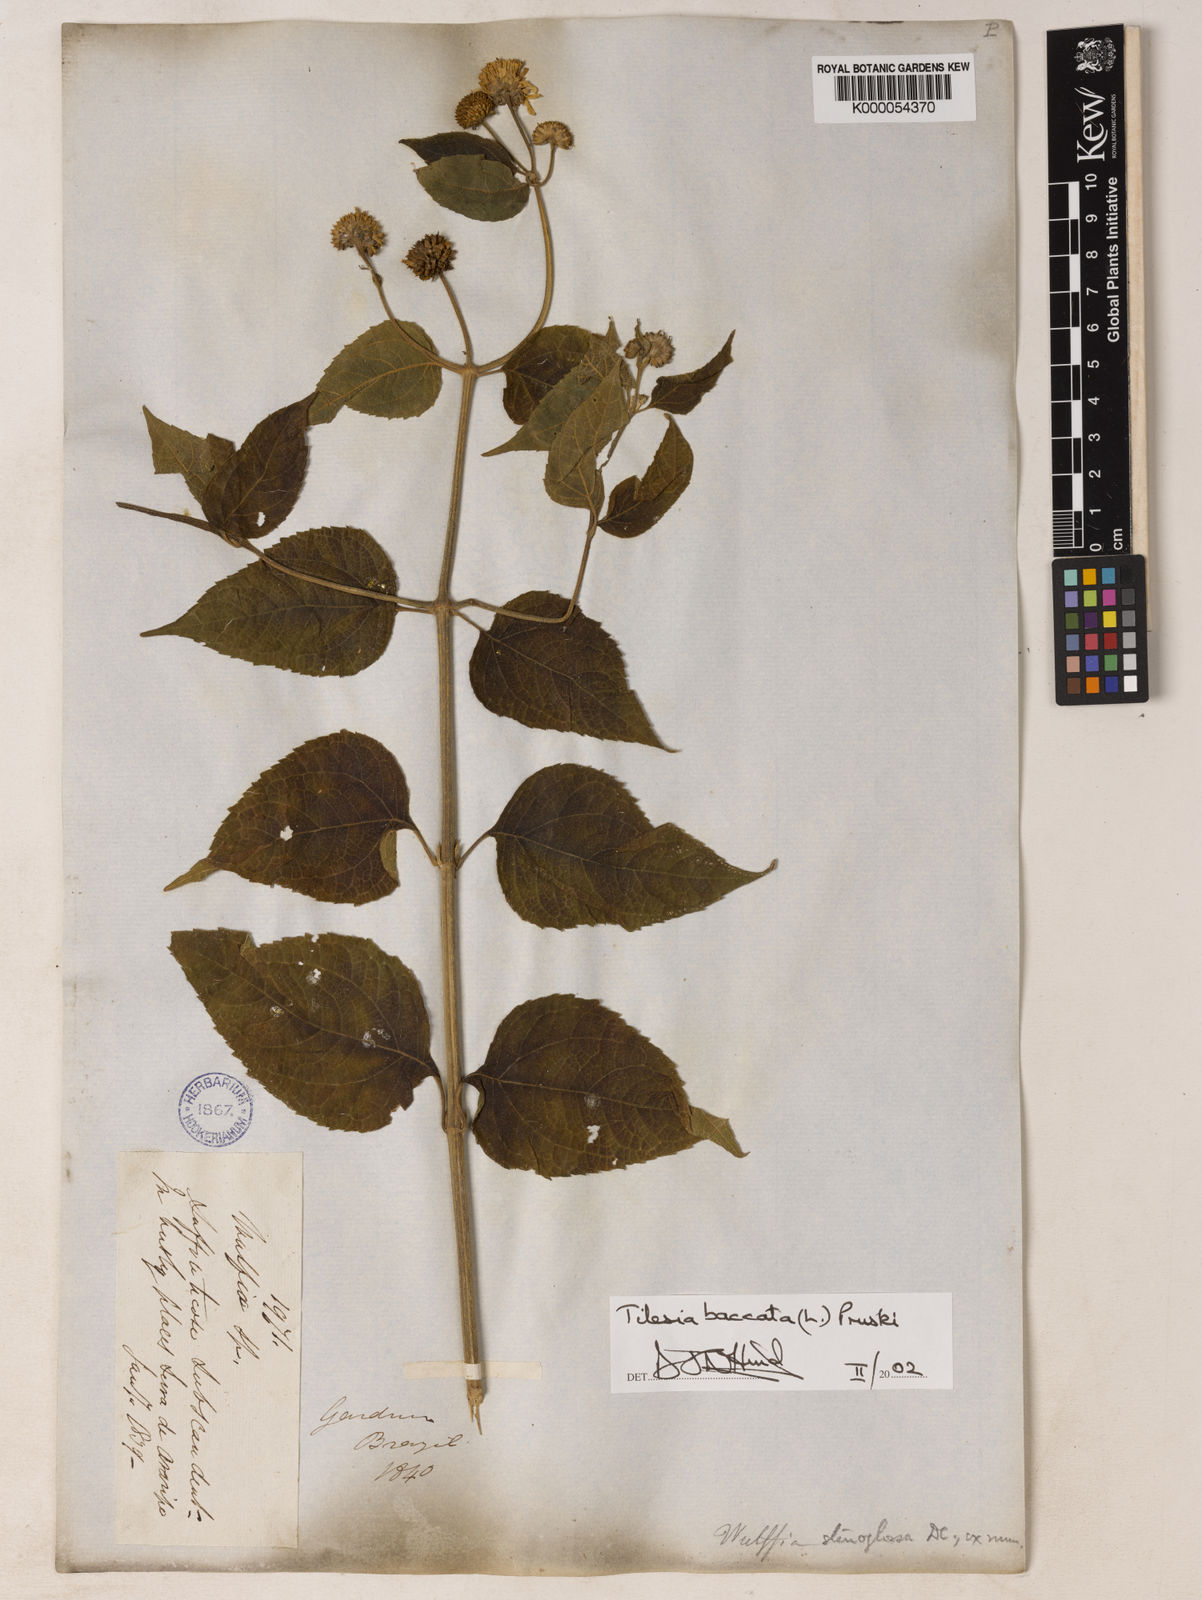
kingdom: Plantae
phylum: Tracheophyta
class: Magnoliopsida
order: Asterales
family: Asteraceae
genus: Tilesia
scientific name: Tilesia baccata
